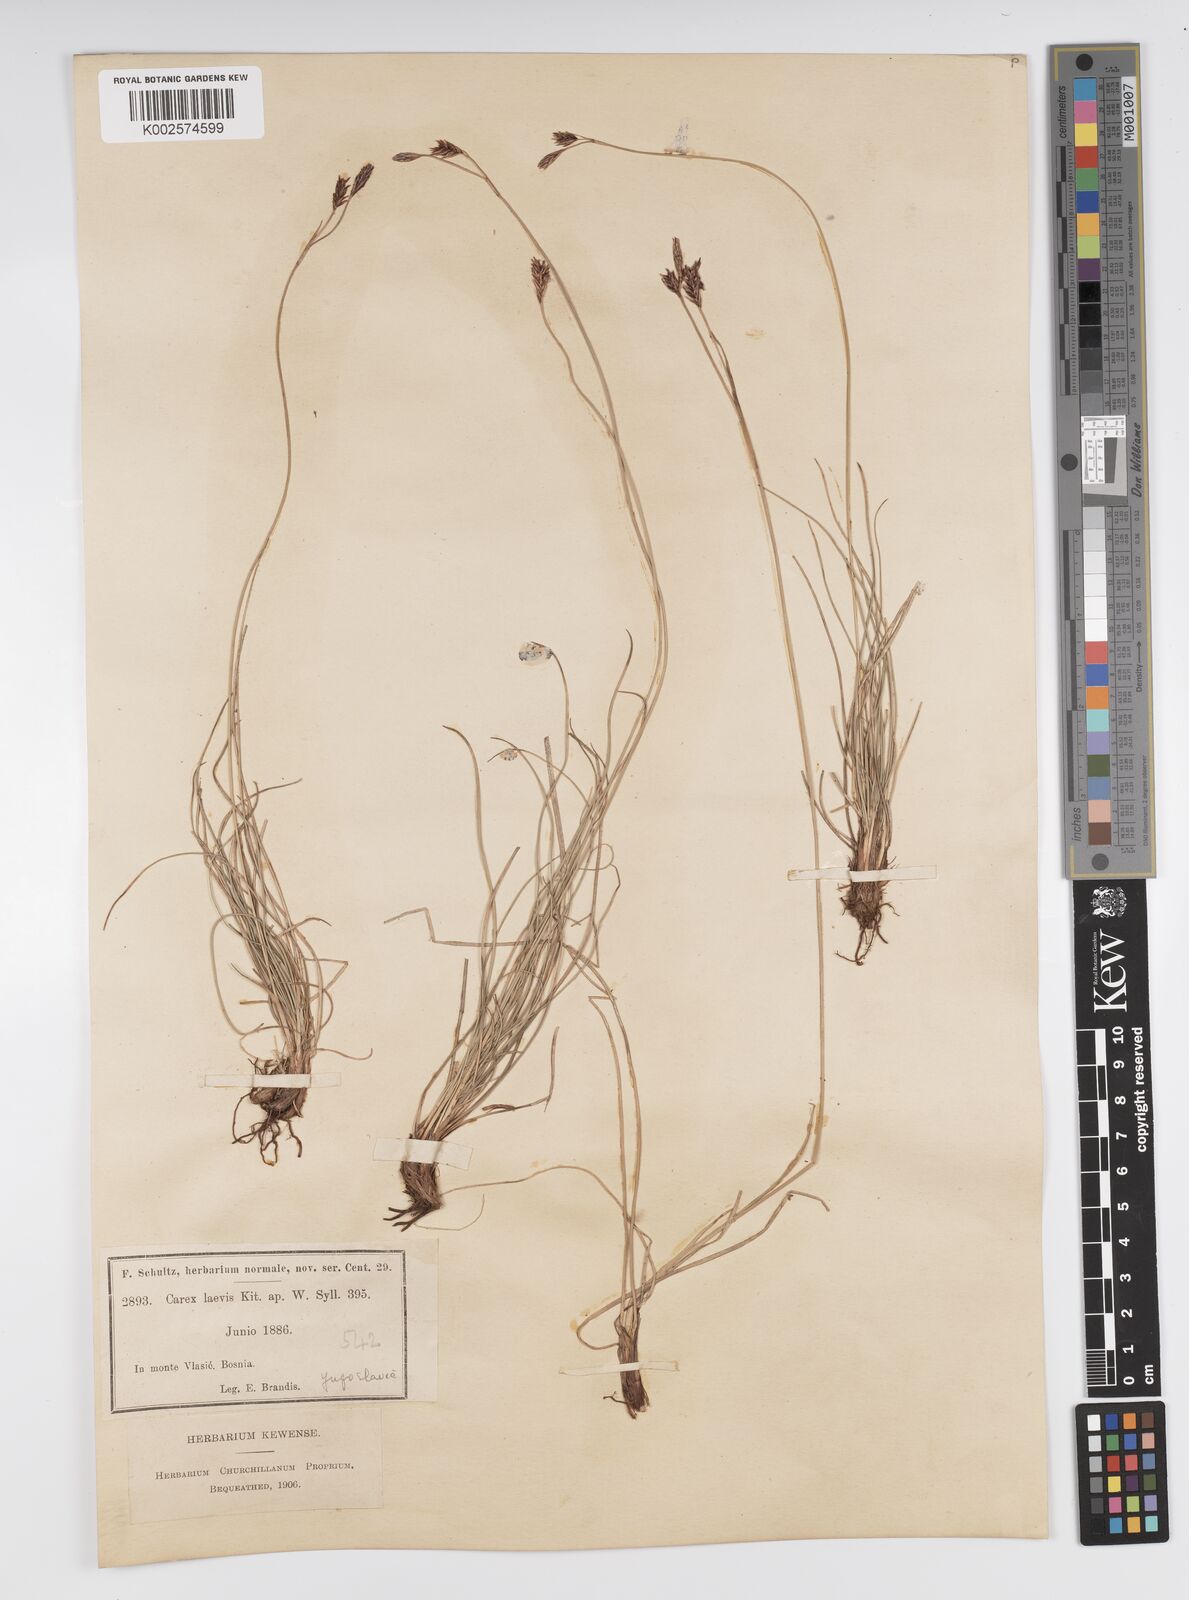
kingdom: Plantae
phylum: Tracheophyta
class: Liliopsida
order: Poales
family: Cyperaceae
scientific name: Cyperaceae
